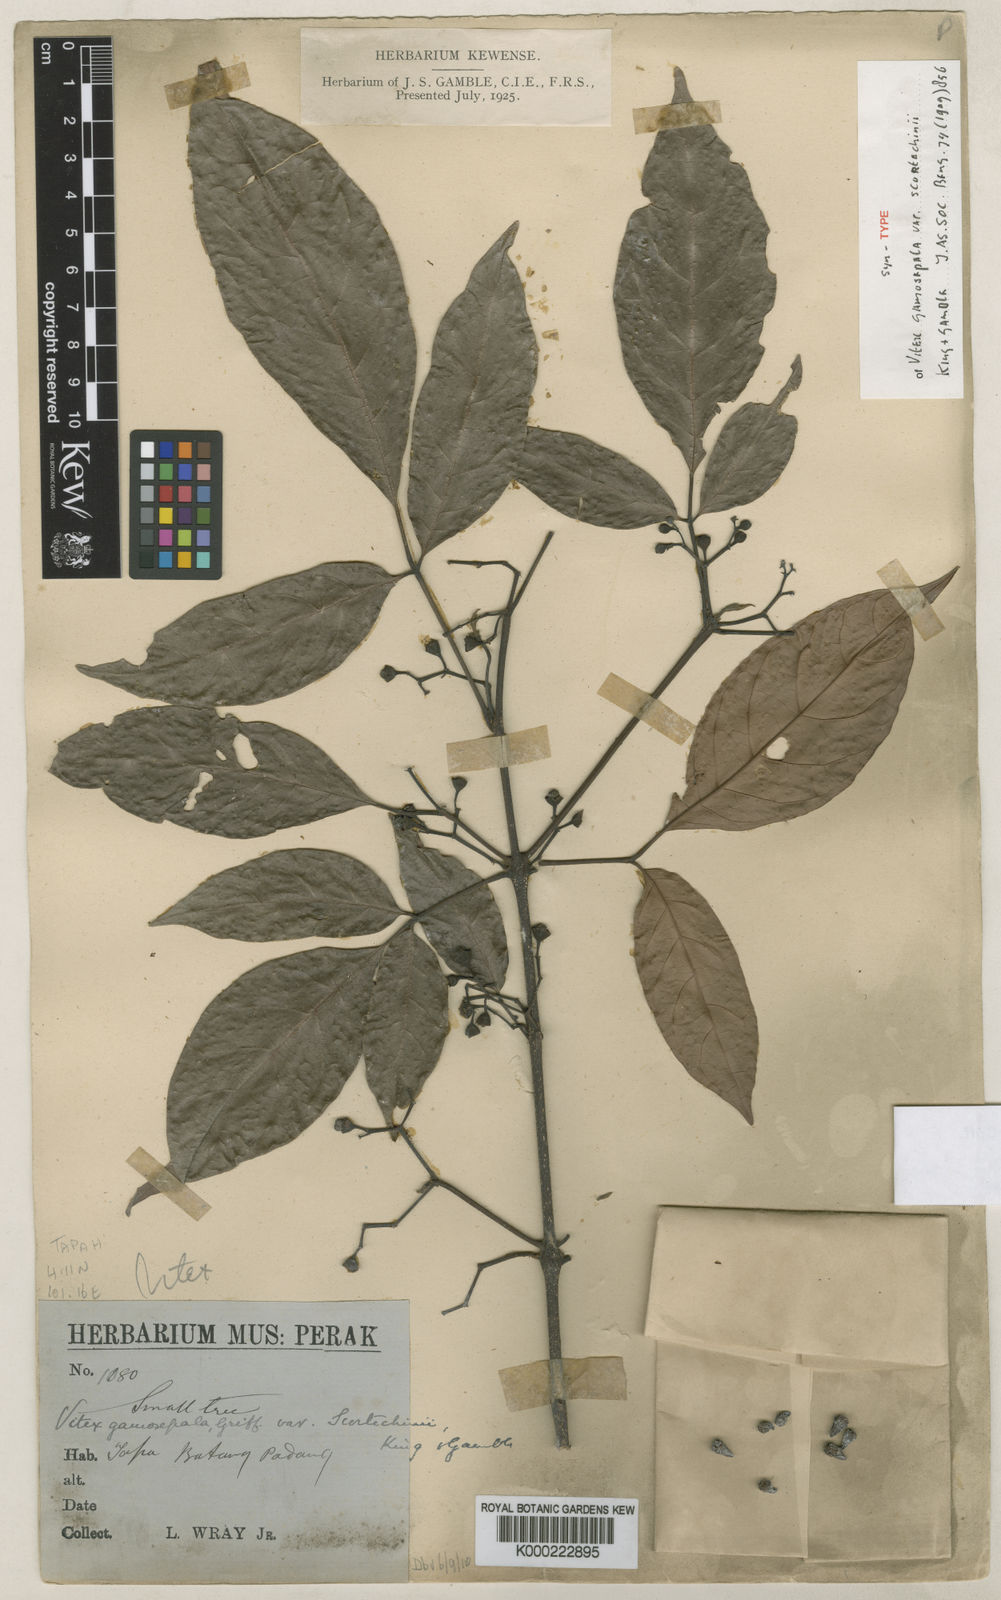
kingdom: Plantae
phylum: Tracheophyta
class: Magnoliopsida
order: Lamiales
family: Lamiaceae
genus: Vitex
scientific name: Vitex gamosepala
